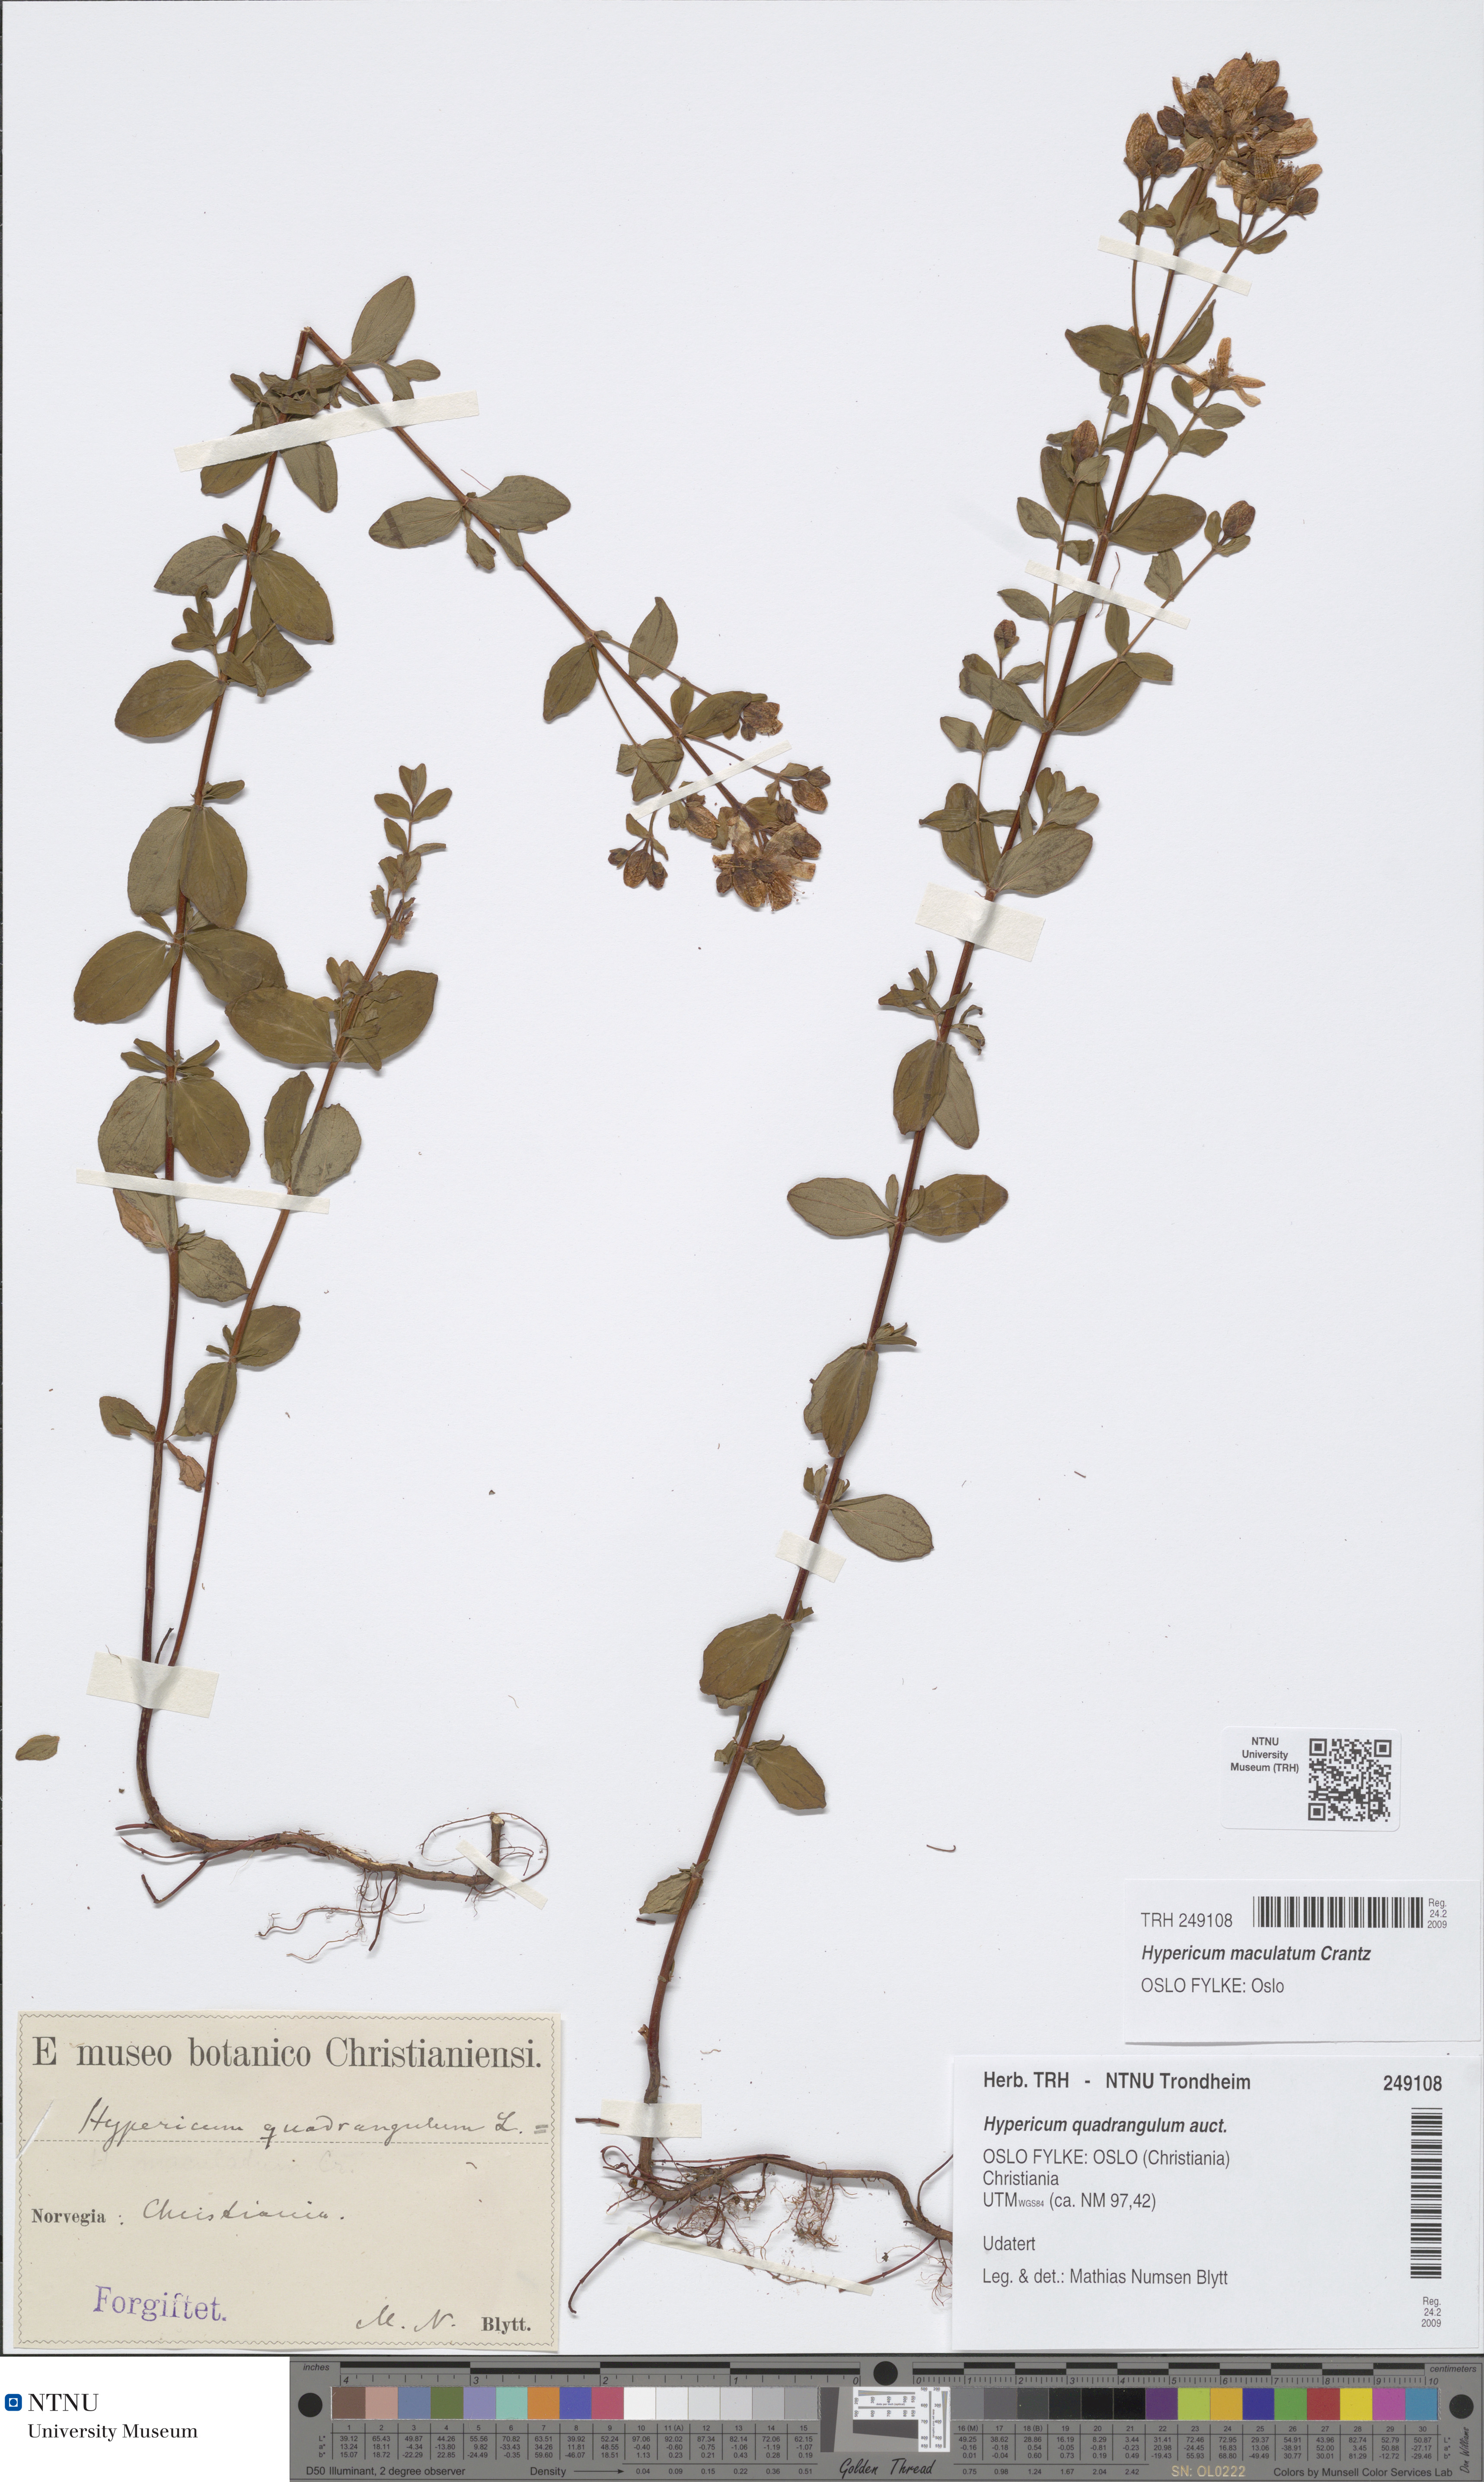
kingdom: Plantae
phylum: Tracheophyta
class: Magnoliopsida
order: Malpighiales
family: Hypericaceae
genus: Hypericum
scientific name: Hypericum maculatum
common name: Imperforate st. john's-wort
